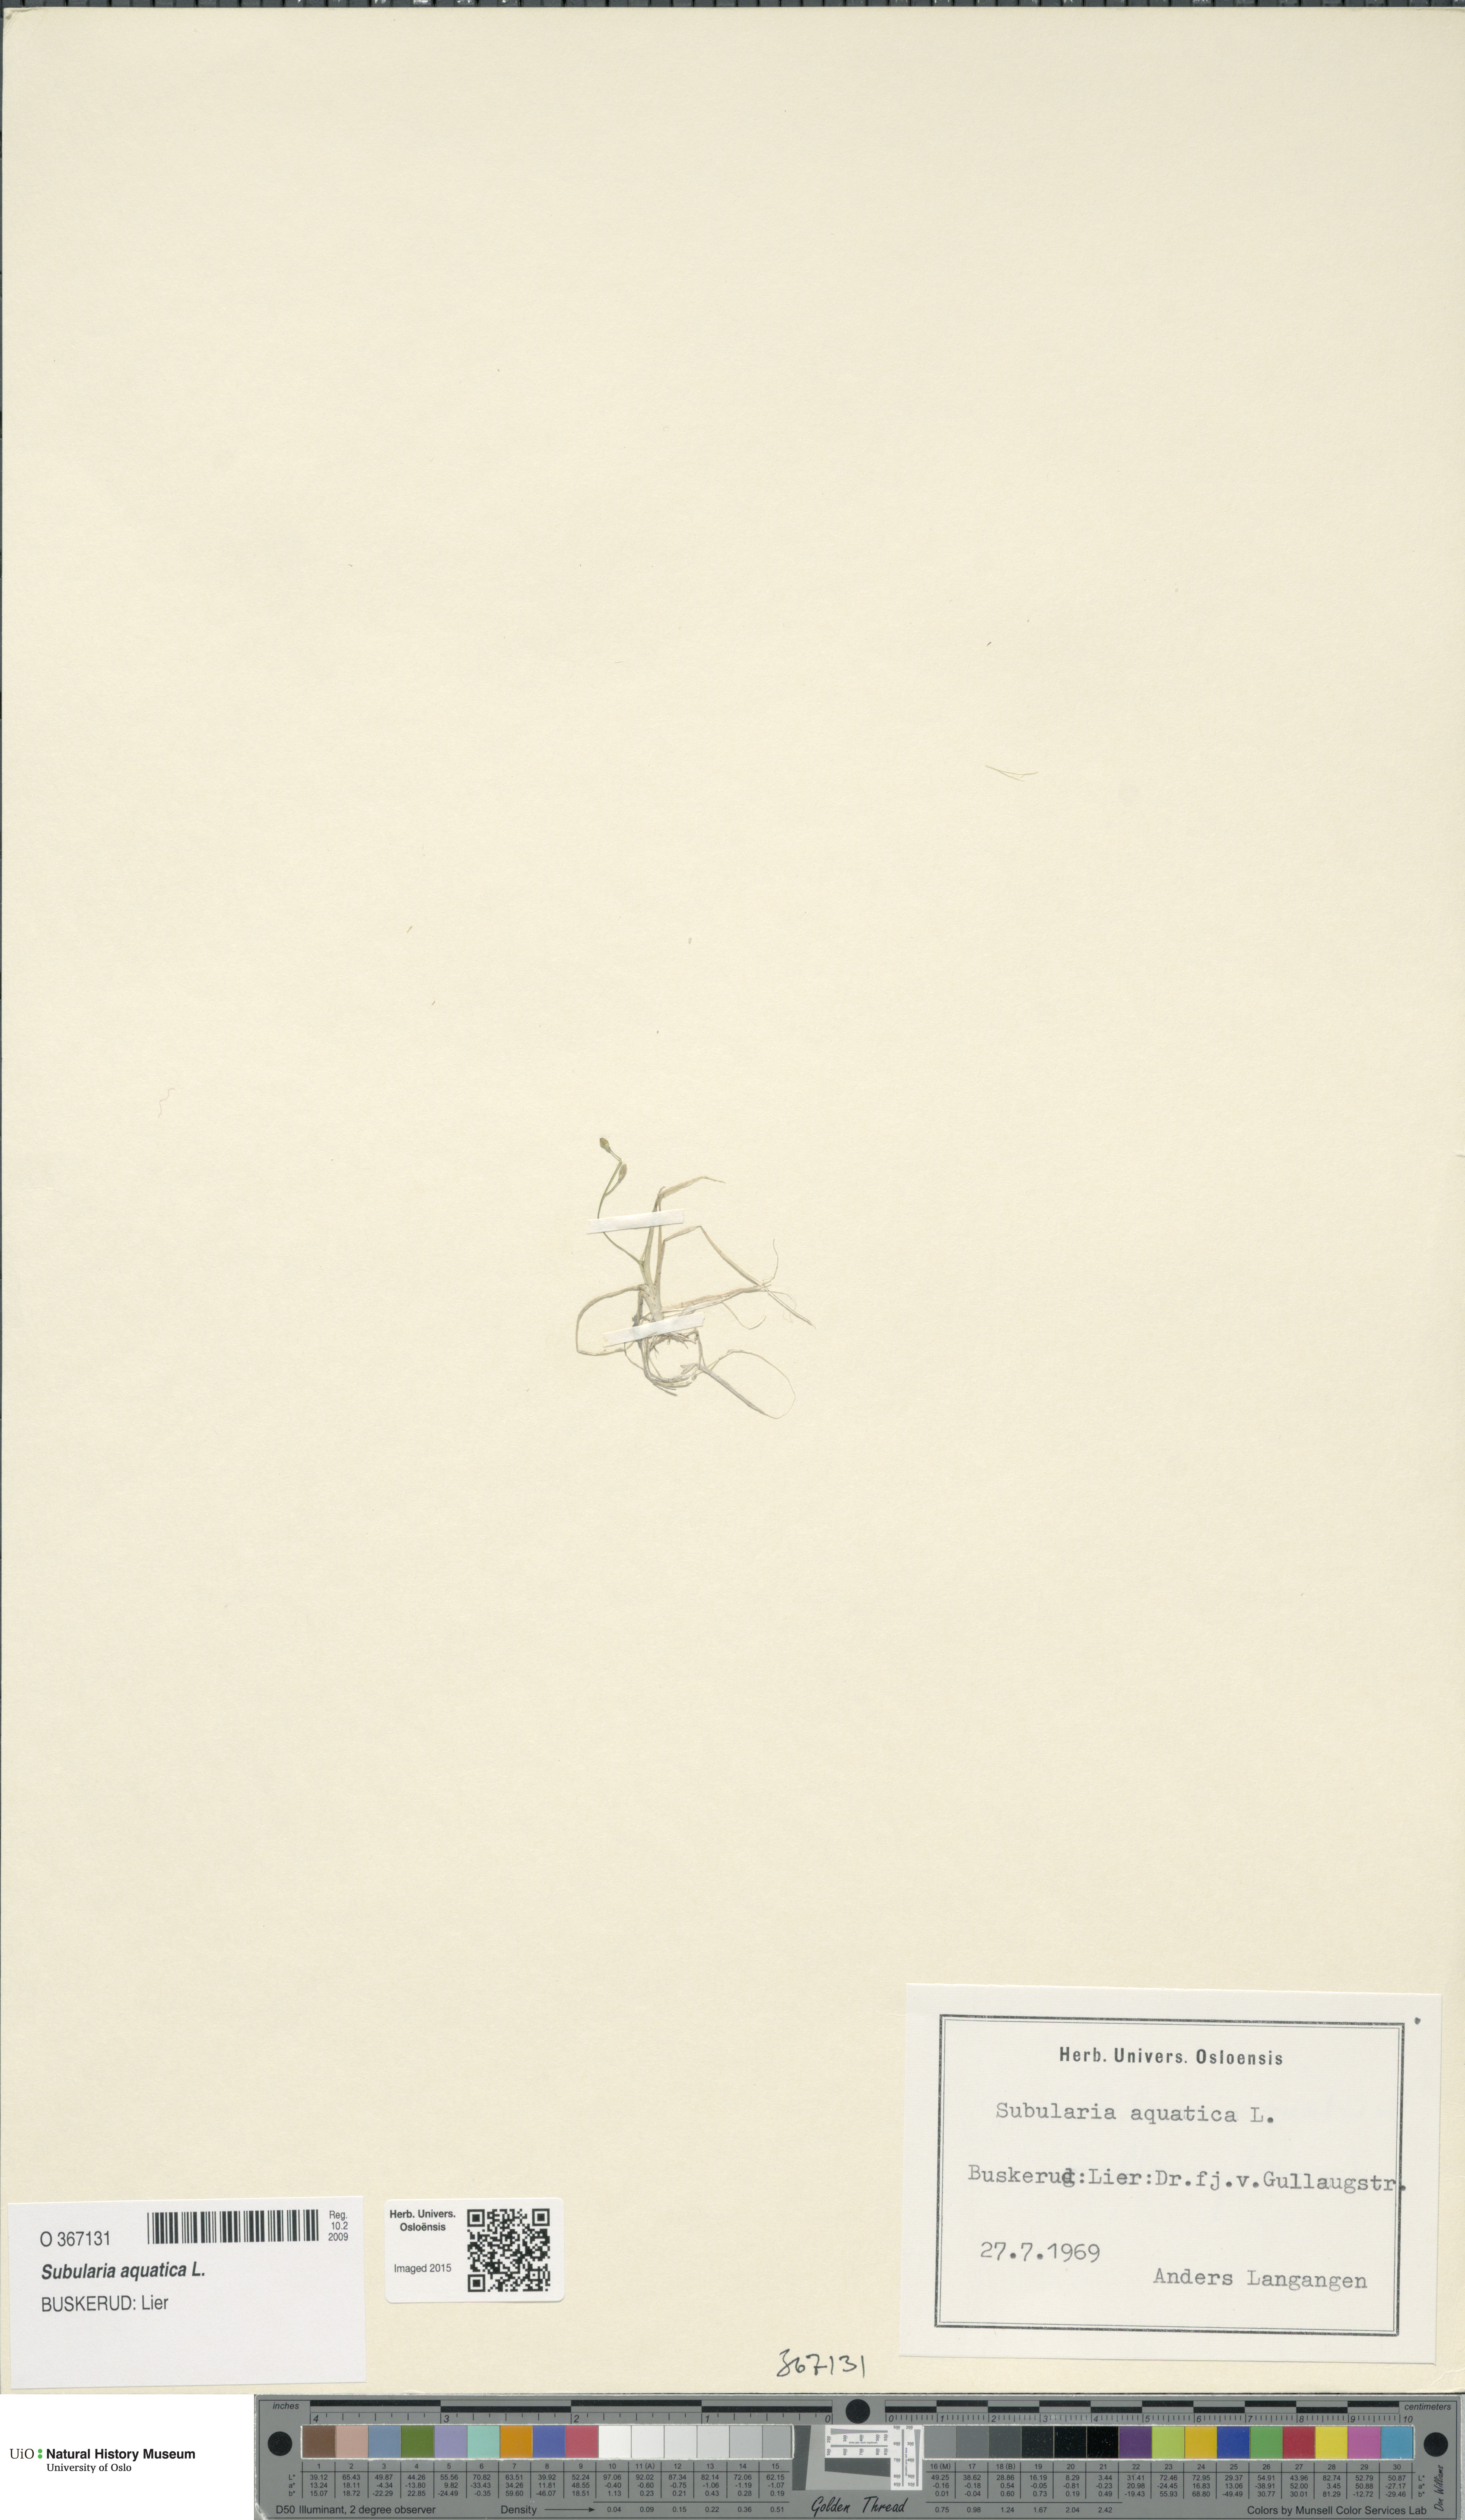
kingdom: Plantae
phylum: Tracheophyta
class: Magnoliopsida
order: Brassicales
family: Brassicaceae
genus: Subularia
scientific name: Subularia aquatica
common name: Awlwort
